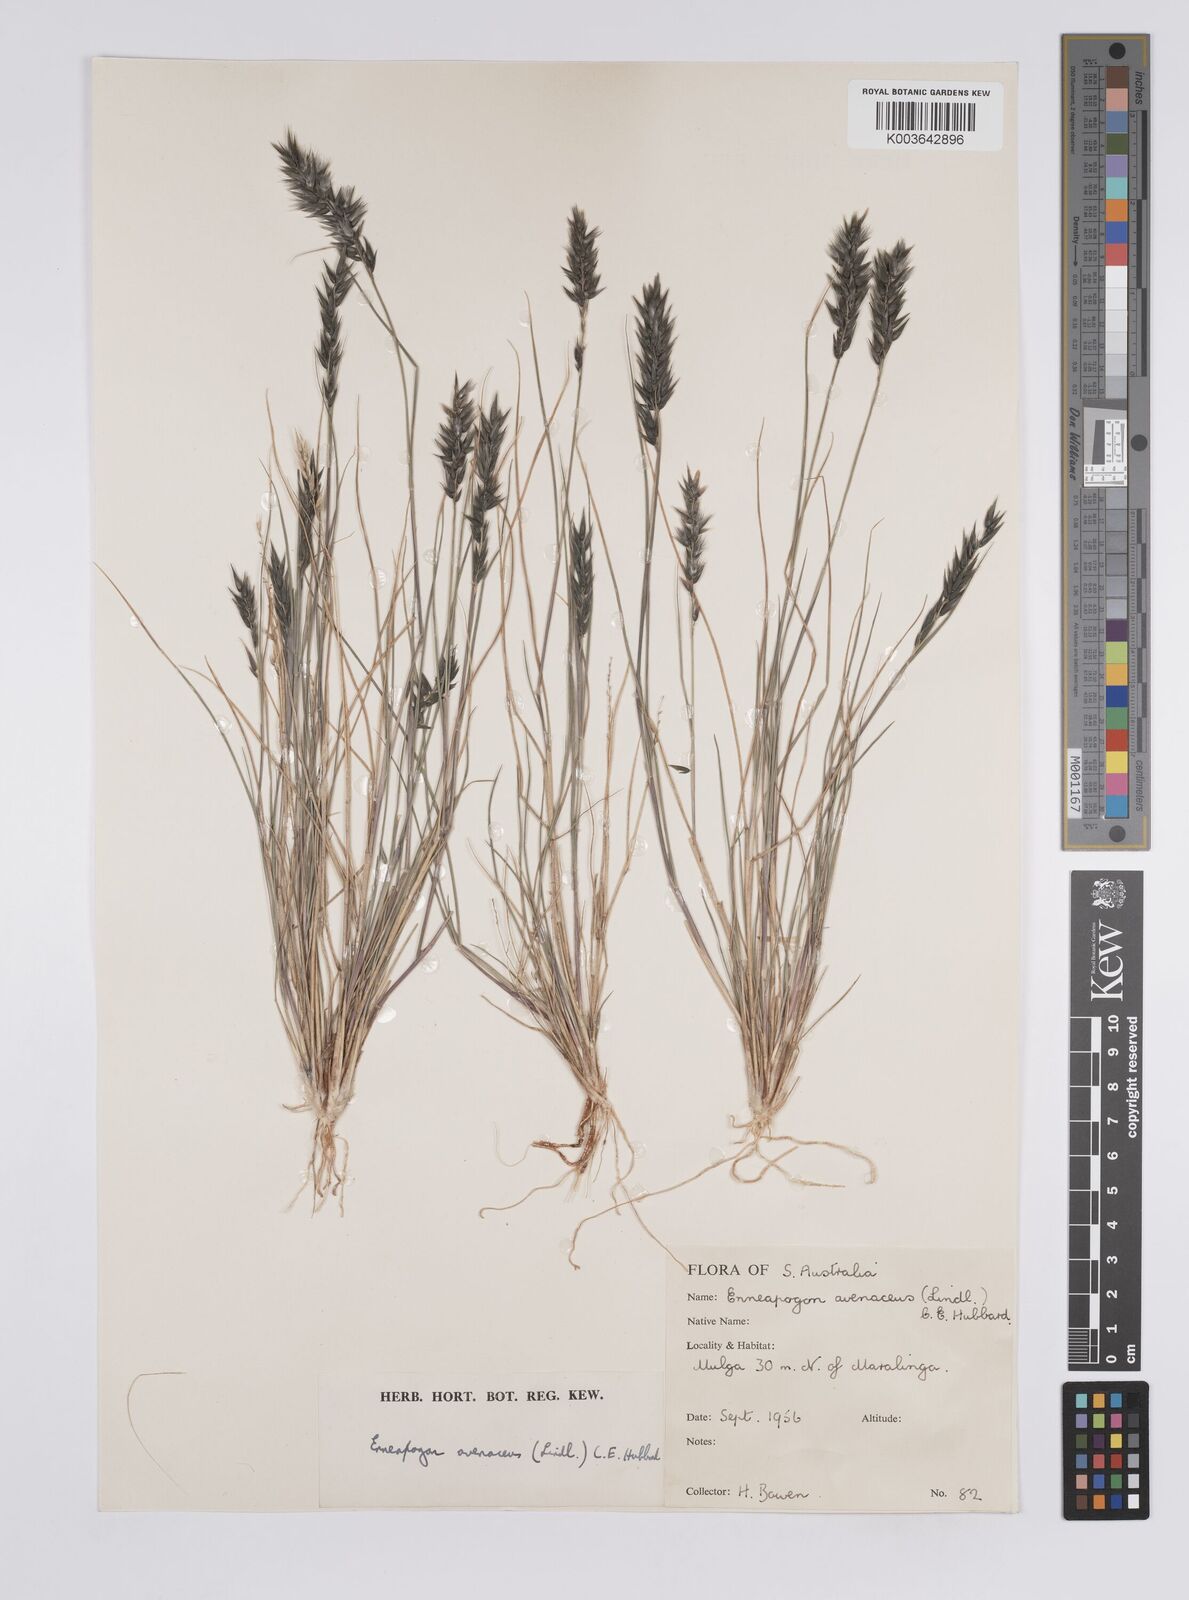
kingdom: Plantae
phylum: Tracheophyta
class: Liliopsida
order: Poales
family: Poaceae
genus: Enneapogon
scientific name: Enneapogon avenaceus
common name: Hairy oat grass
